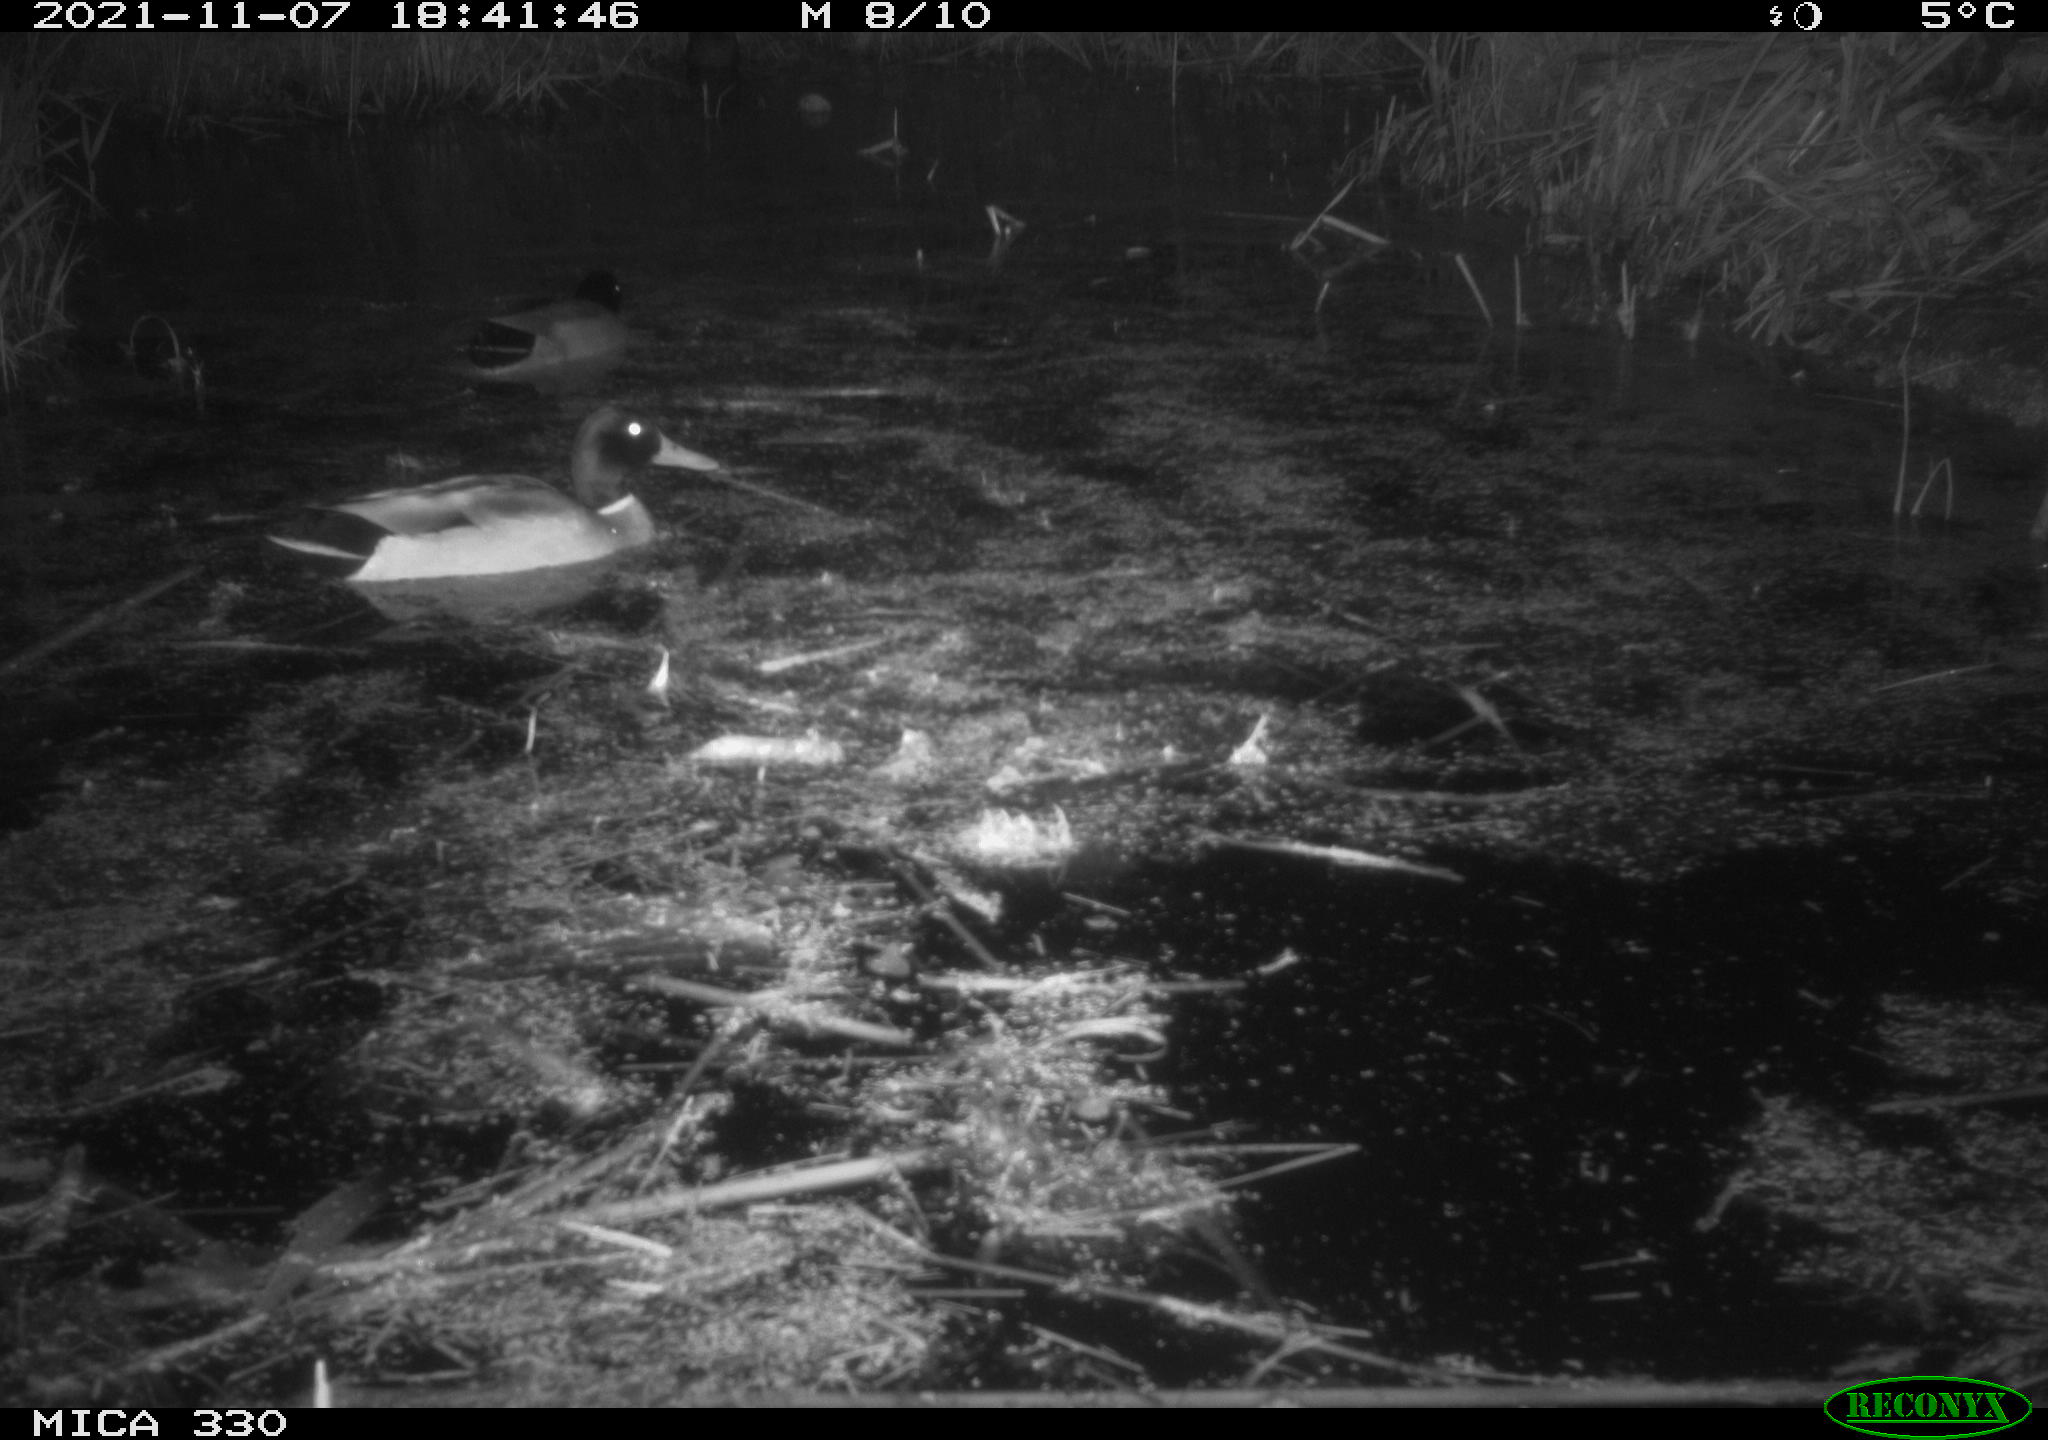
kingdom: Animalia
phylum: Chordata
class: Aves
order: Anseriformes
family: Anatidae
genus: Anas
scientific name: Anas platyrhynchos
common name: Mallard
